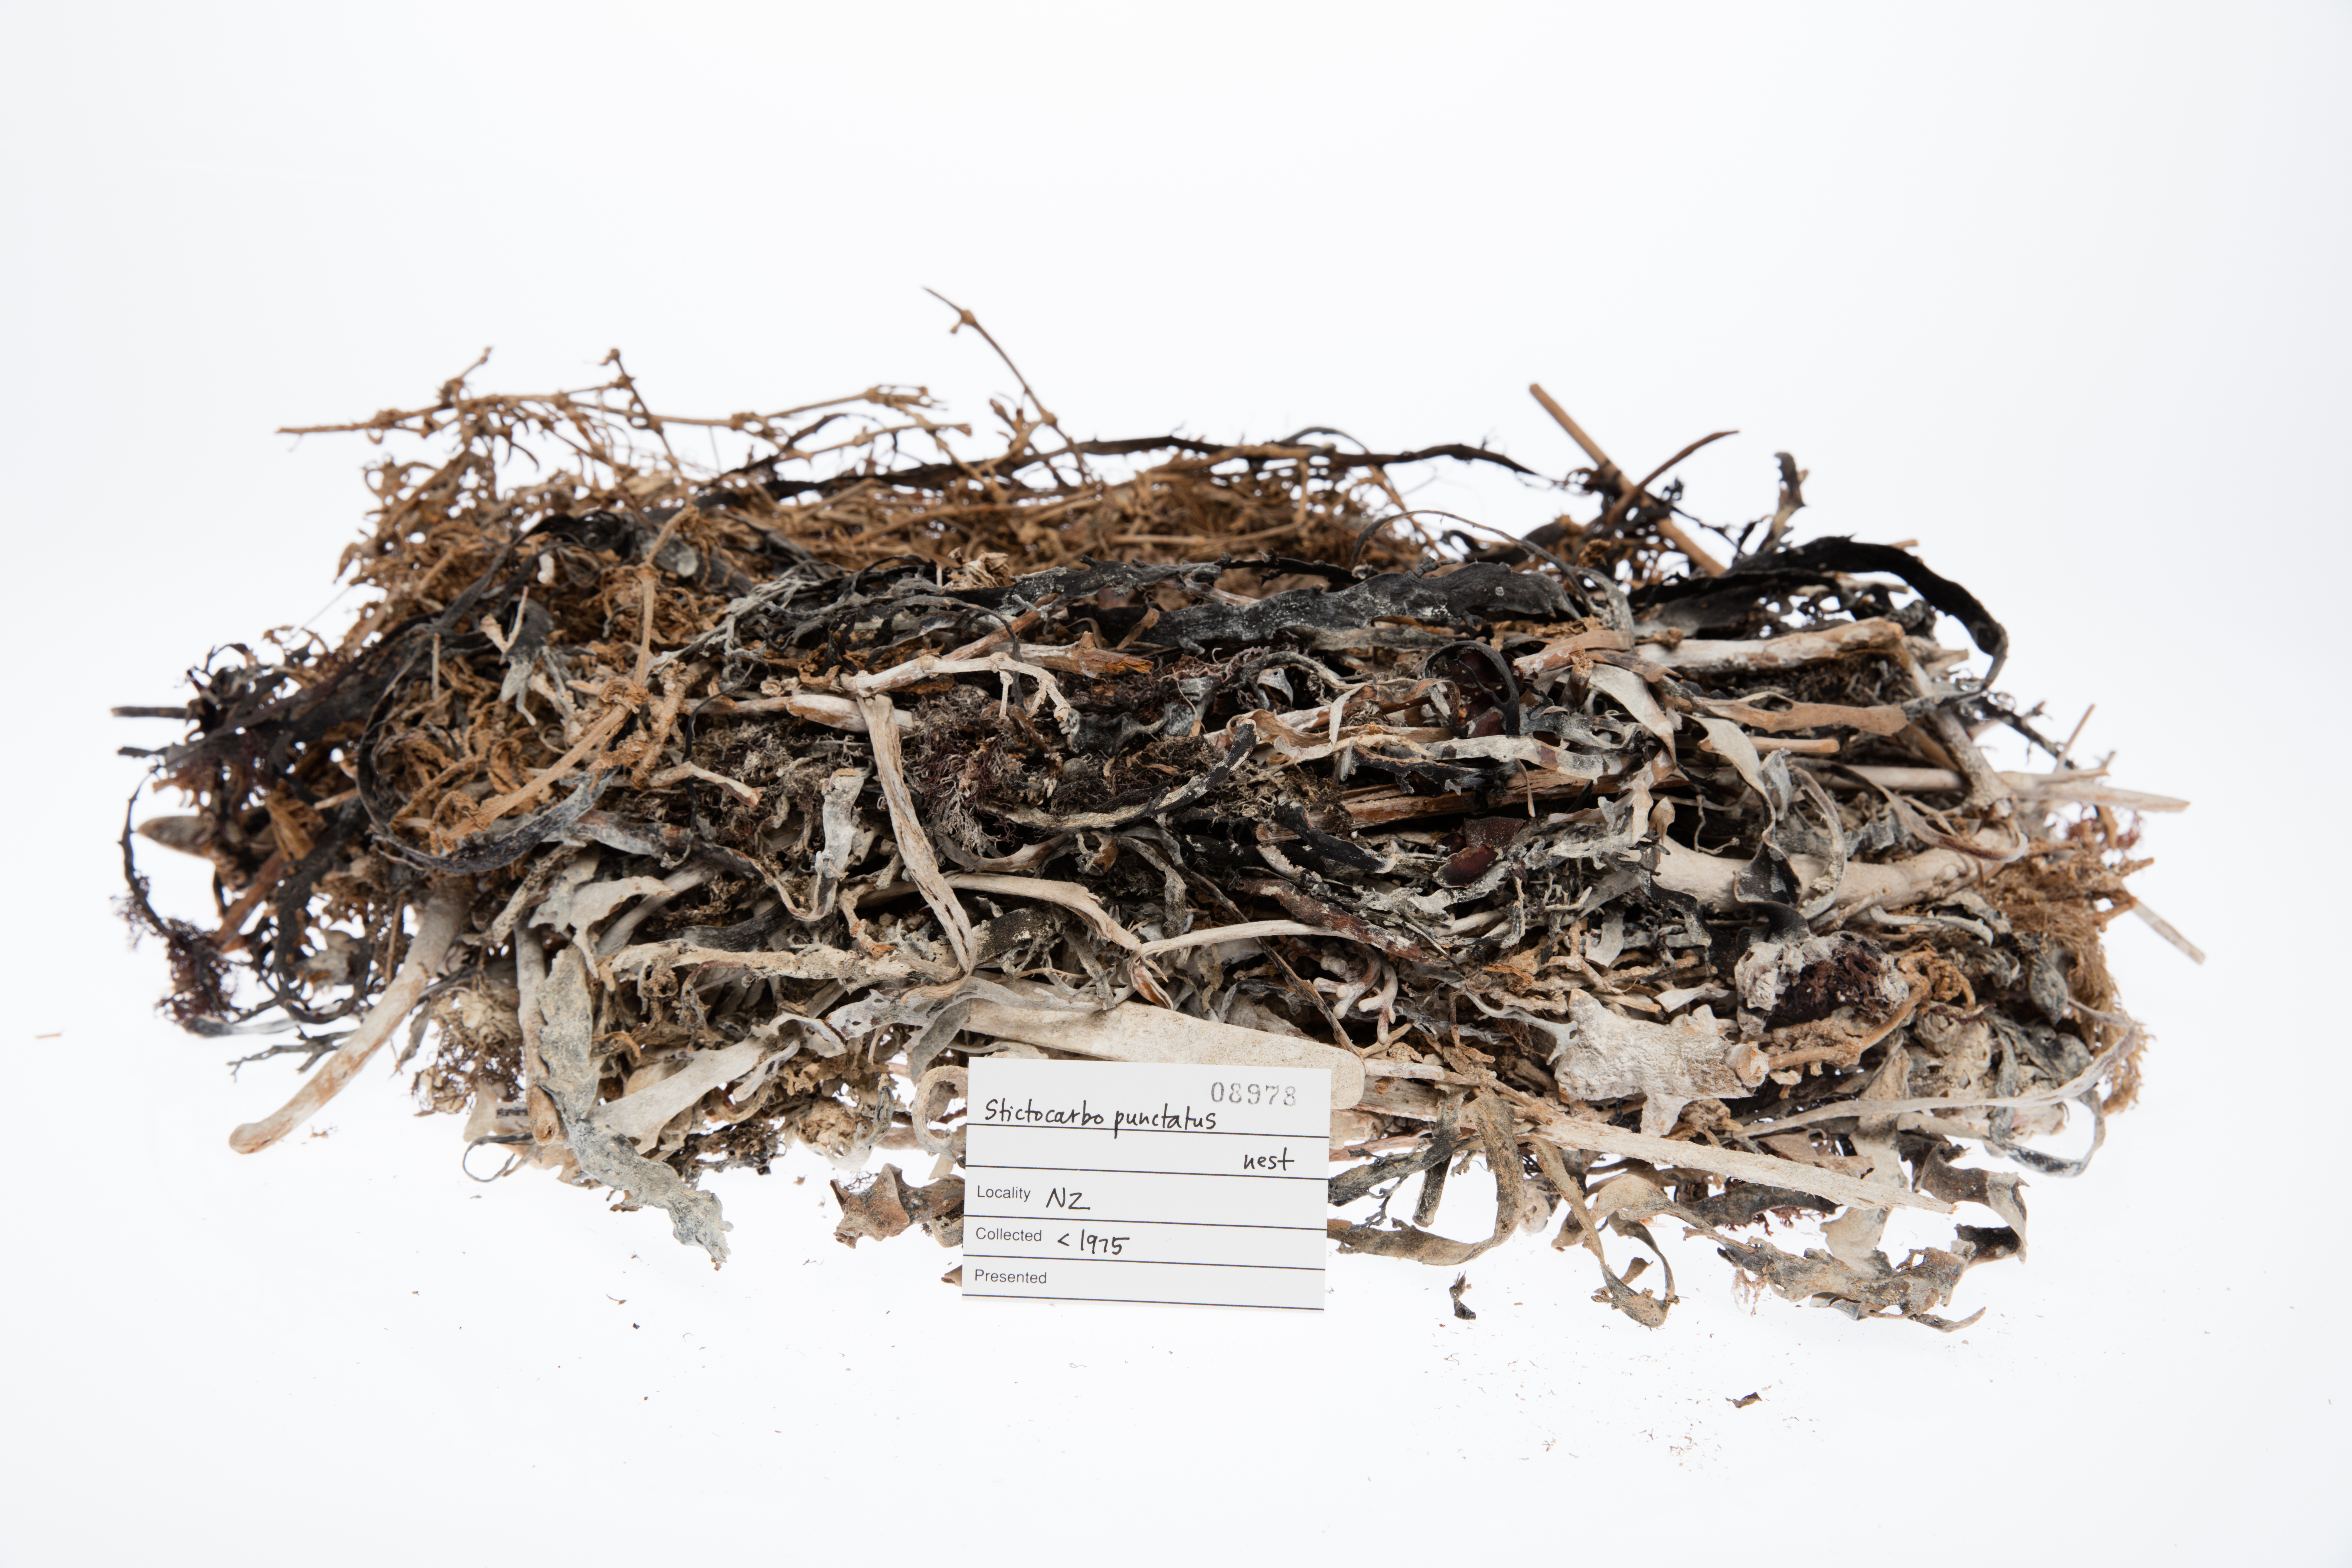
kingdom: Animalia
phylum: Chordata
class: Aves
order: Suliformes
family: Phalacrocoracidae
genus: Phalacrocorax
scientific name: Phalacrocorax punctatus
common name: Spotted shag
